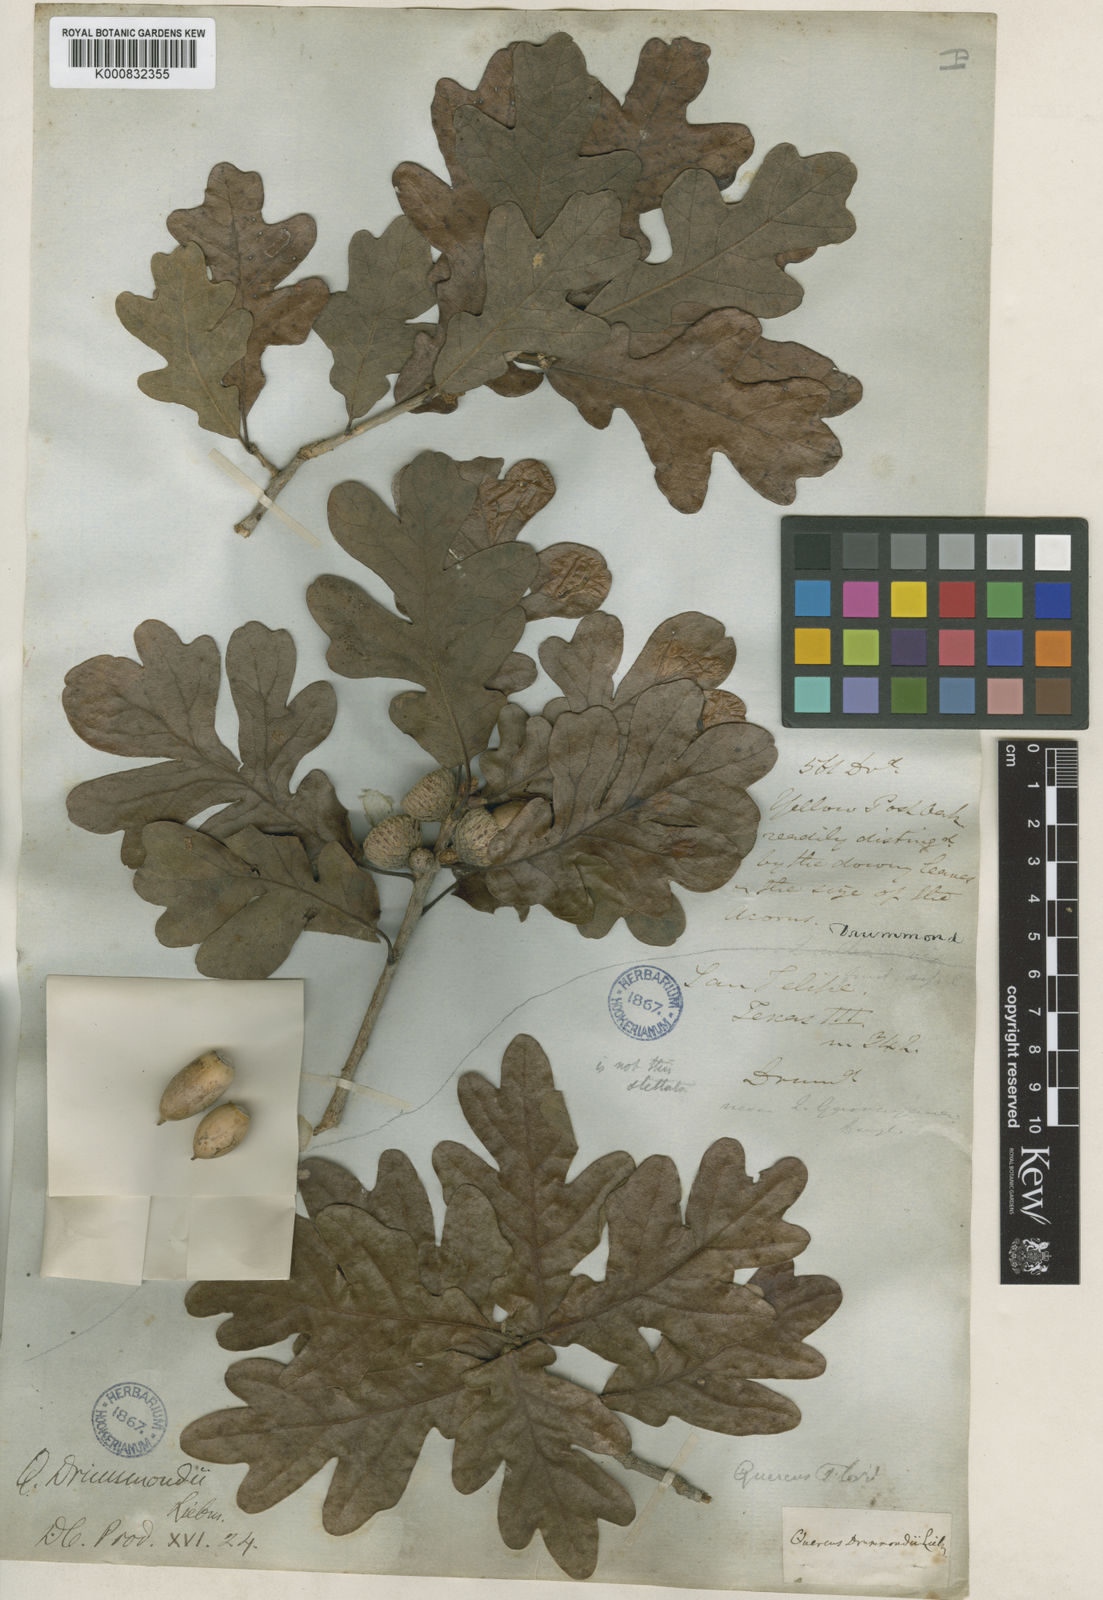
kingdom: Plantae
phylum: Tracheophyta
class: Magnoliopsida
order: Fagales
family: Fagaceae
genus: Quercus
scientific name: Quercus stellata
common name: Post oak
